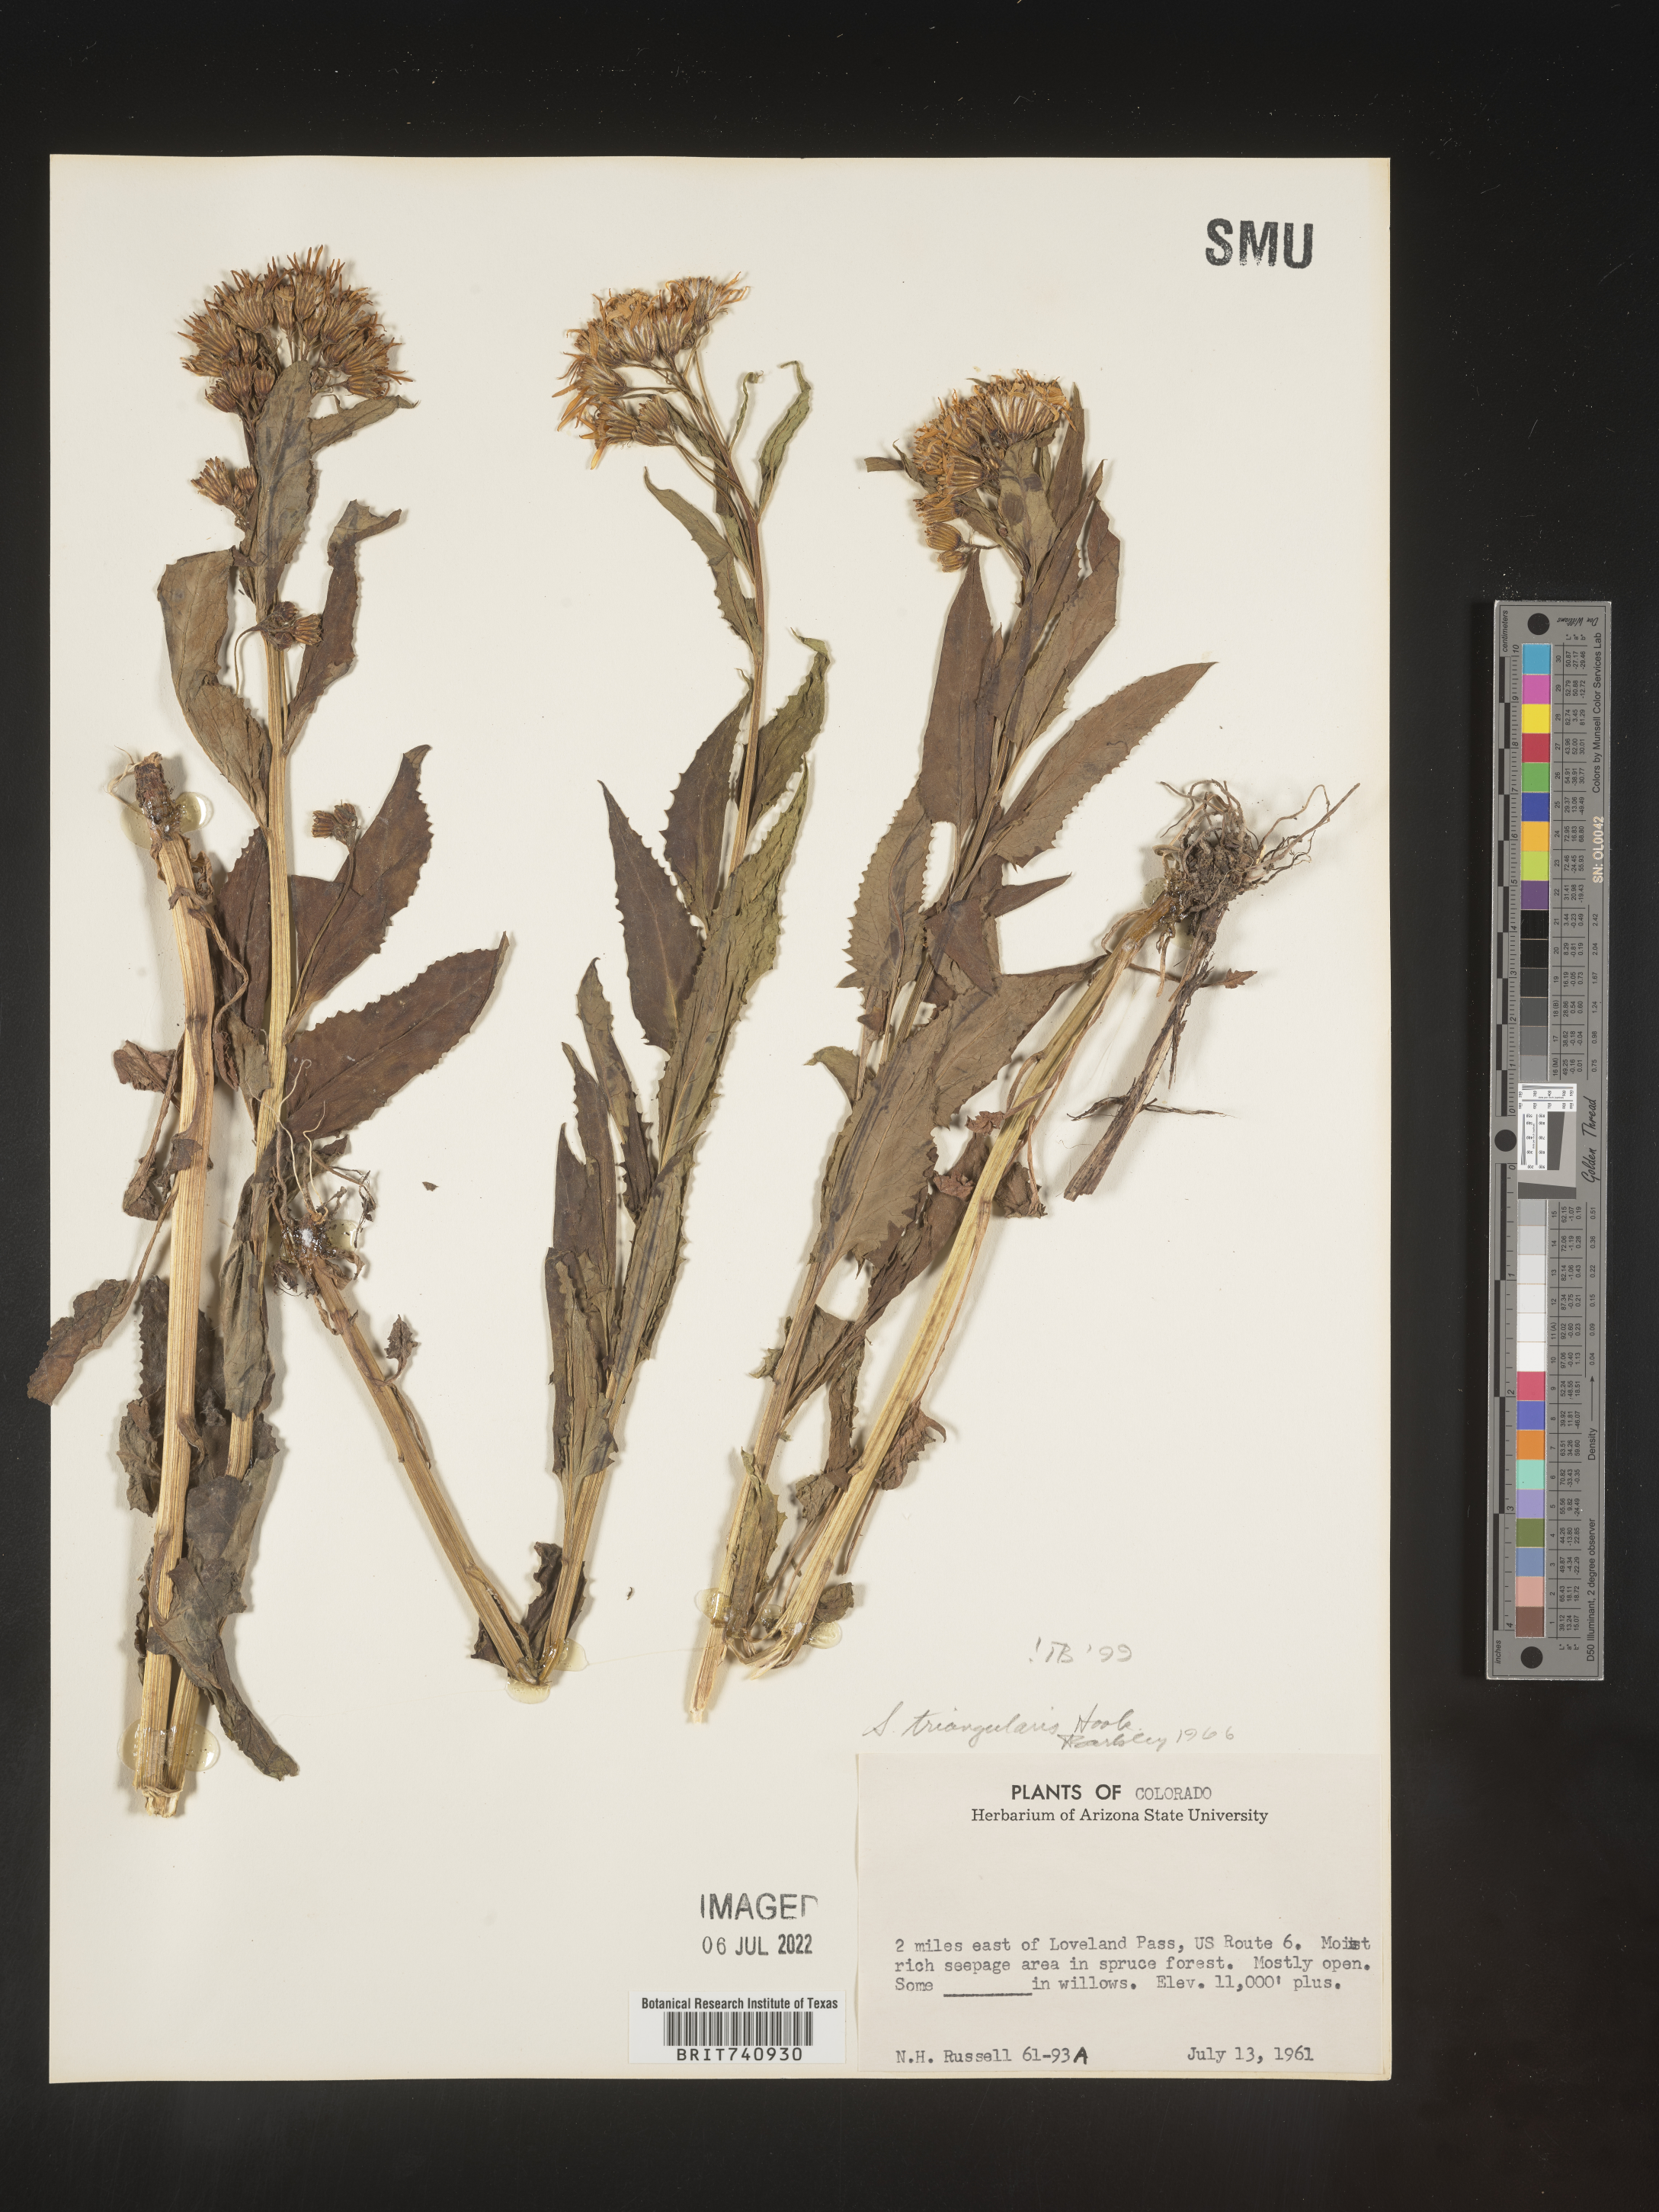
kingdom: Plantae
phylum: Tracheophyta
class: Magnoliopsida
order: Asterales
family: Asteraceae
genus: Senecio
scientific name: Senecio triangularis
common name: Arrowleaf butterweed
